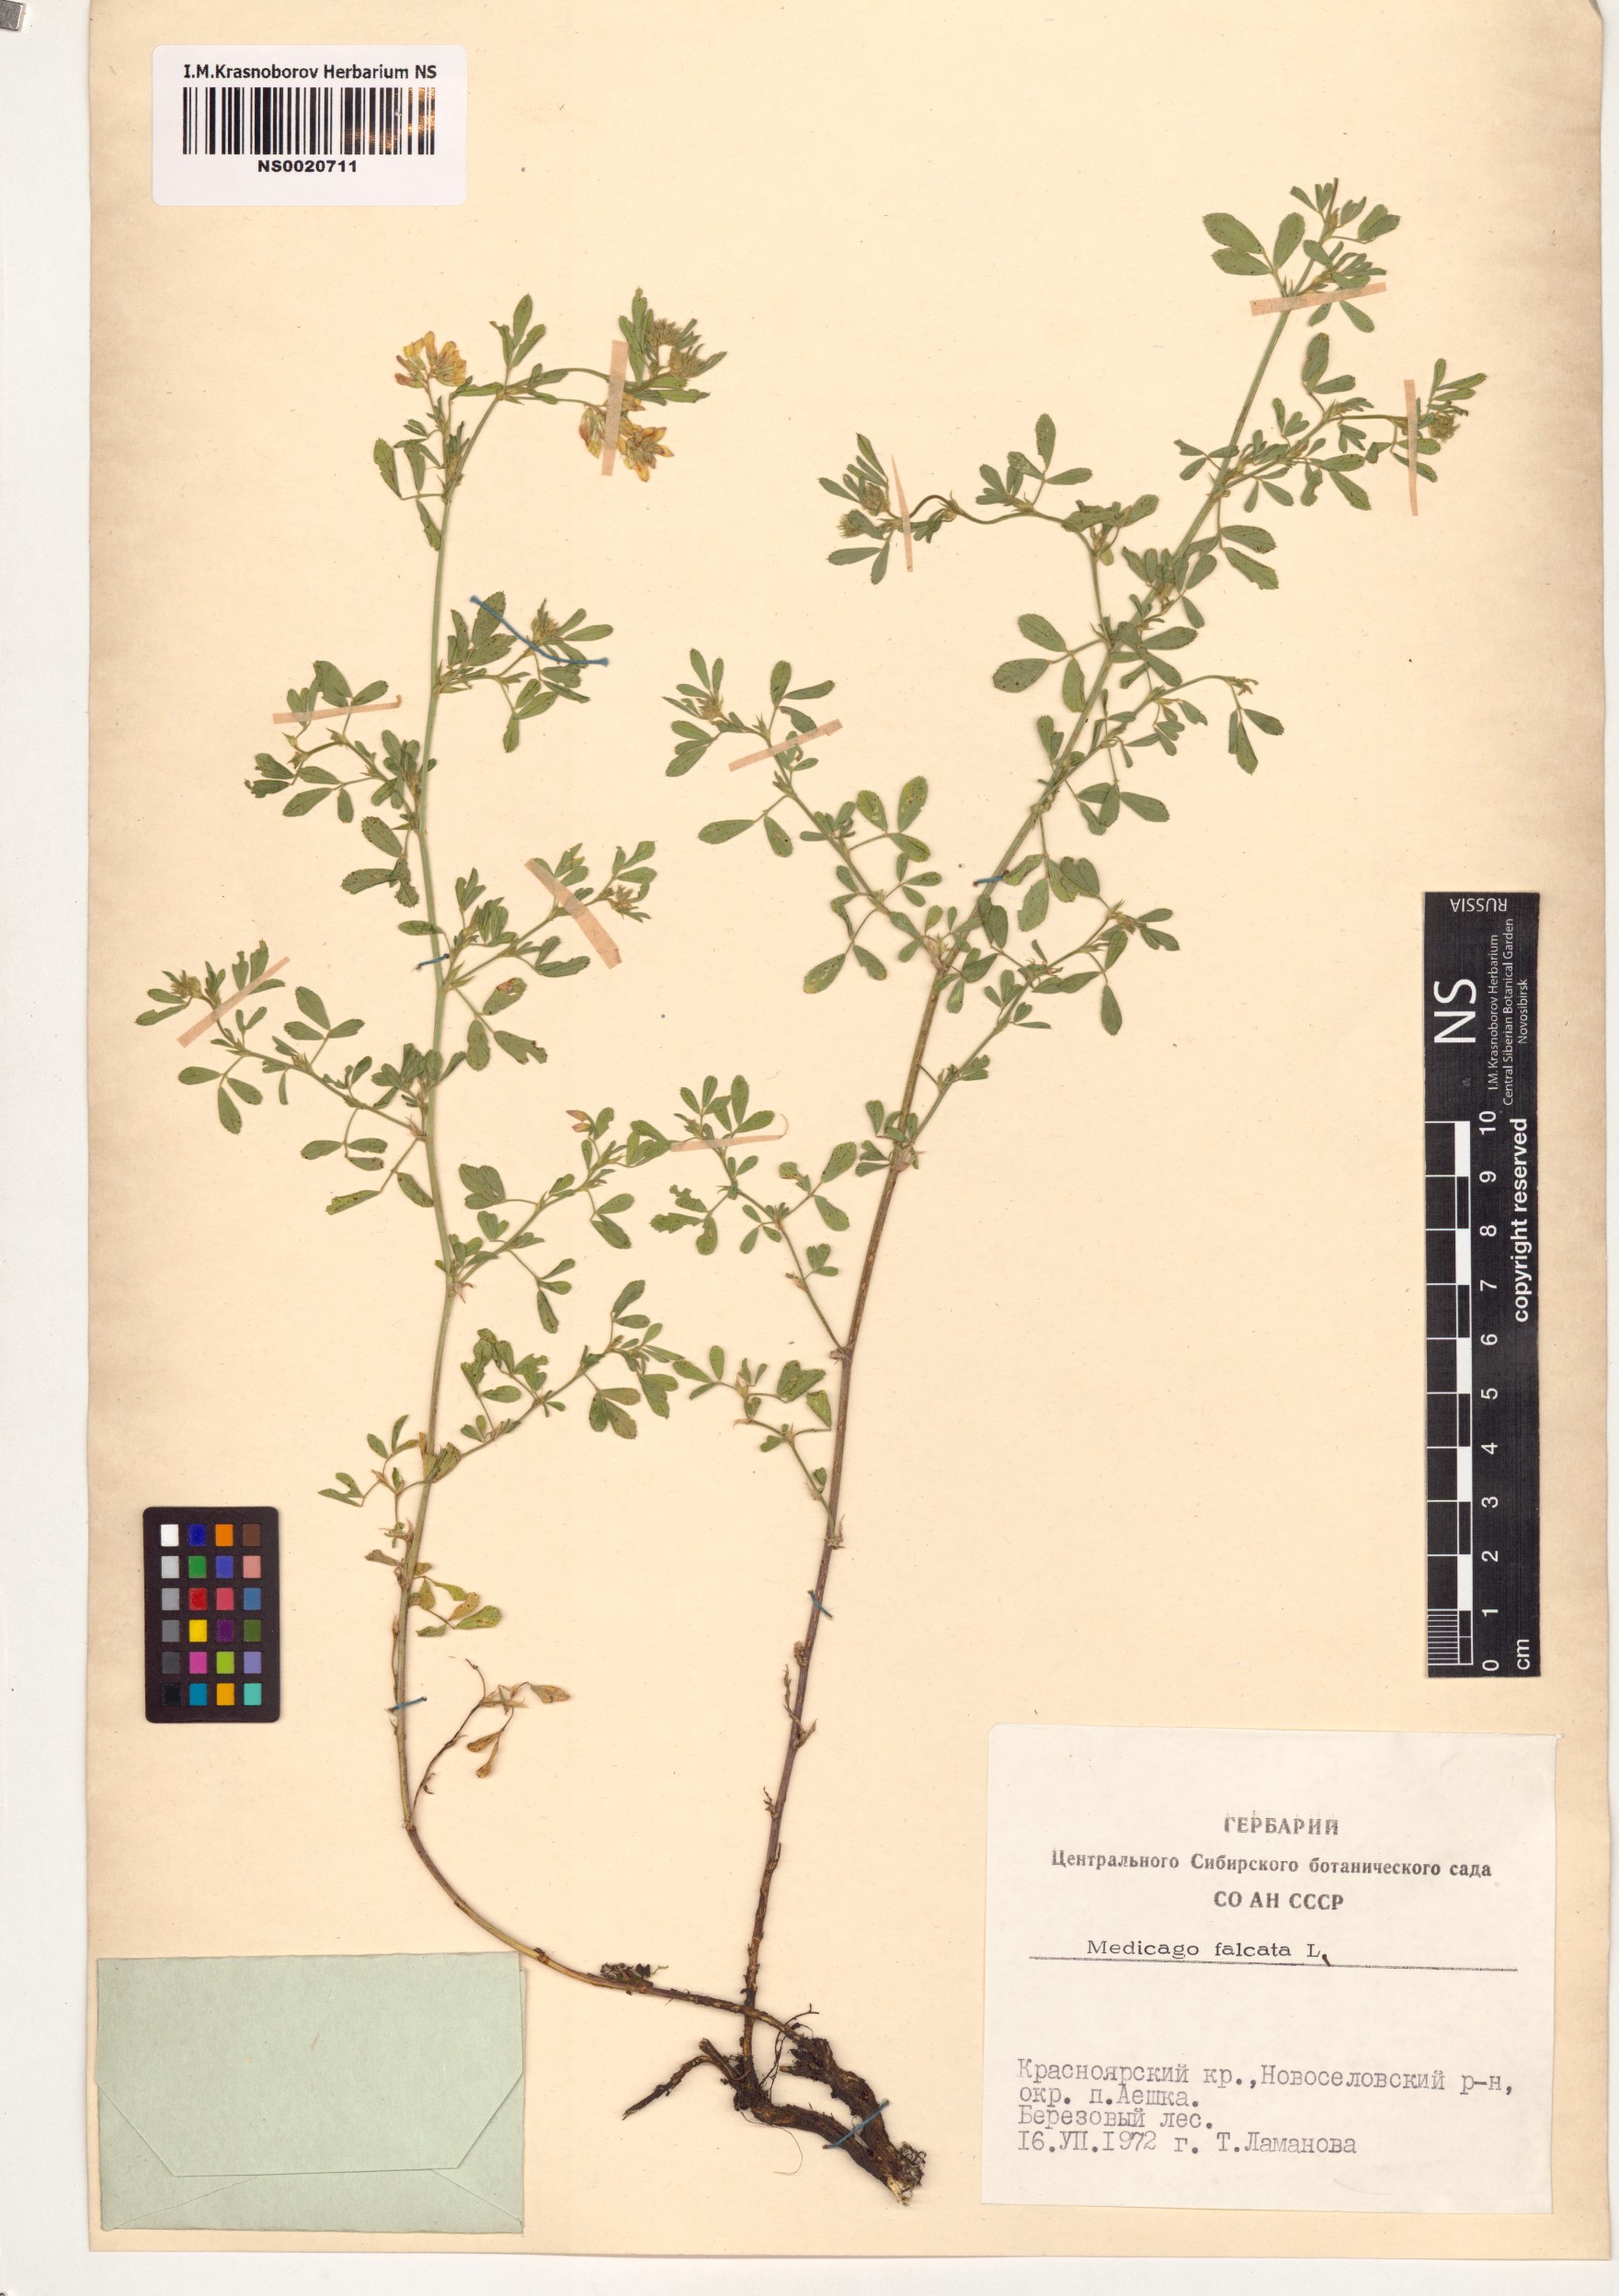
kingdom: Plantae
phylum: Tracheophyta
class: Magnoliopsida
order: Fabales
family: Fabaceae
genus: Medicago
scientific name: Medicago falcata
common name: Sickle medick
